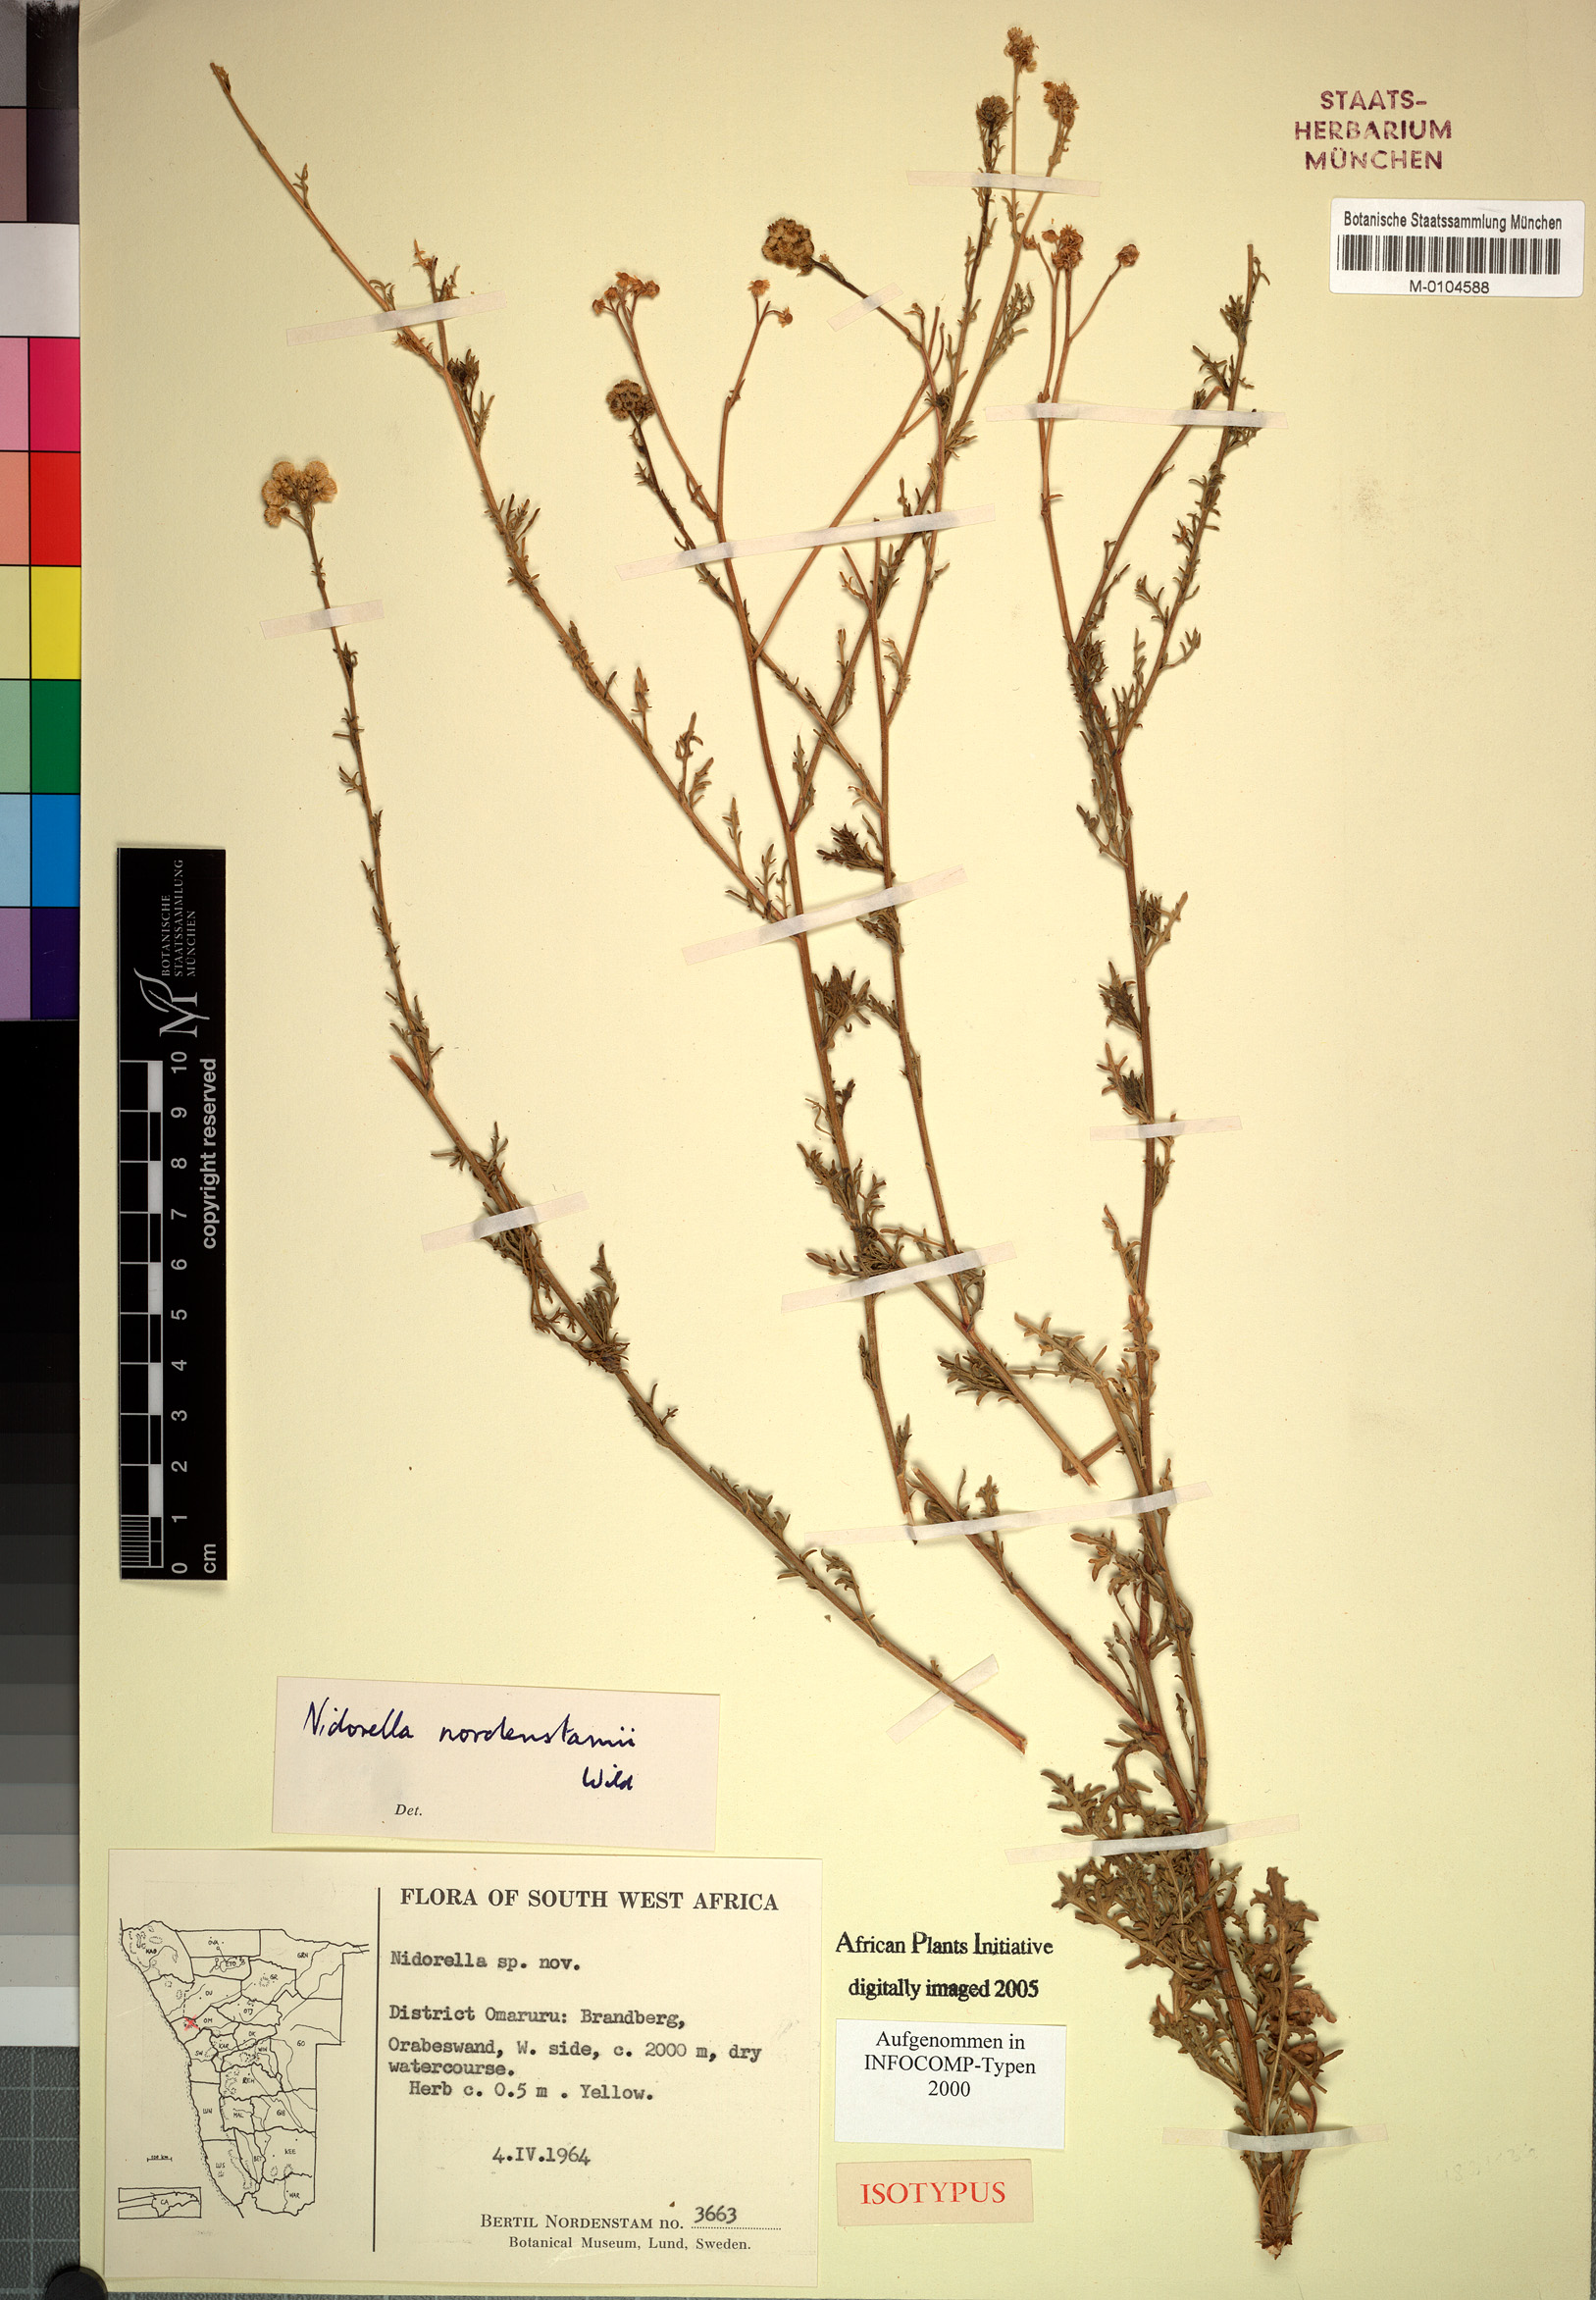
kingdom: Plantae
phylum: Tracheophyta
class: Magnoliopsida
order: Asterales
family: Asteraceae
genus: Nidorella
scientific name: Nidorella nordenstamii
